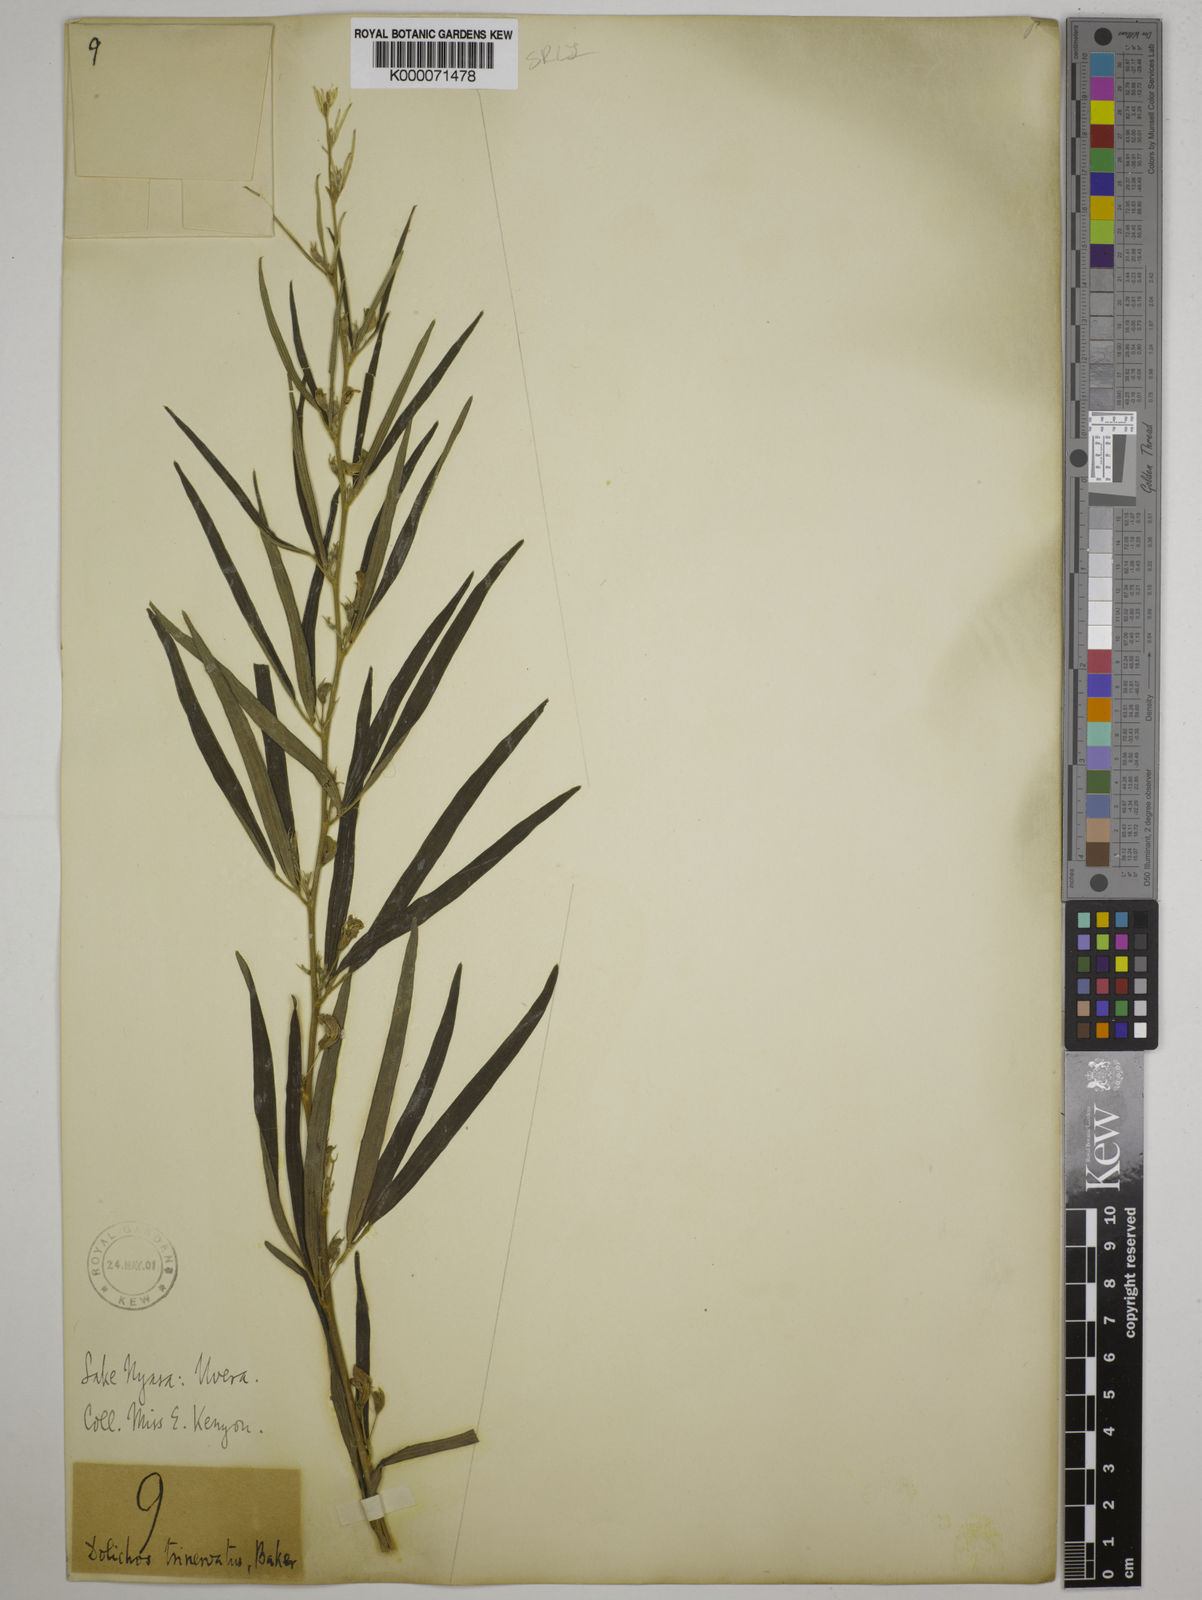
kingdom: Plantae
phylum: Tracheophyta
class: Magnoliopsida
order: Fabales
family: Fabaceae
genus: Dolichos
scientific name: Dolichos trinervatus
